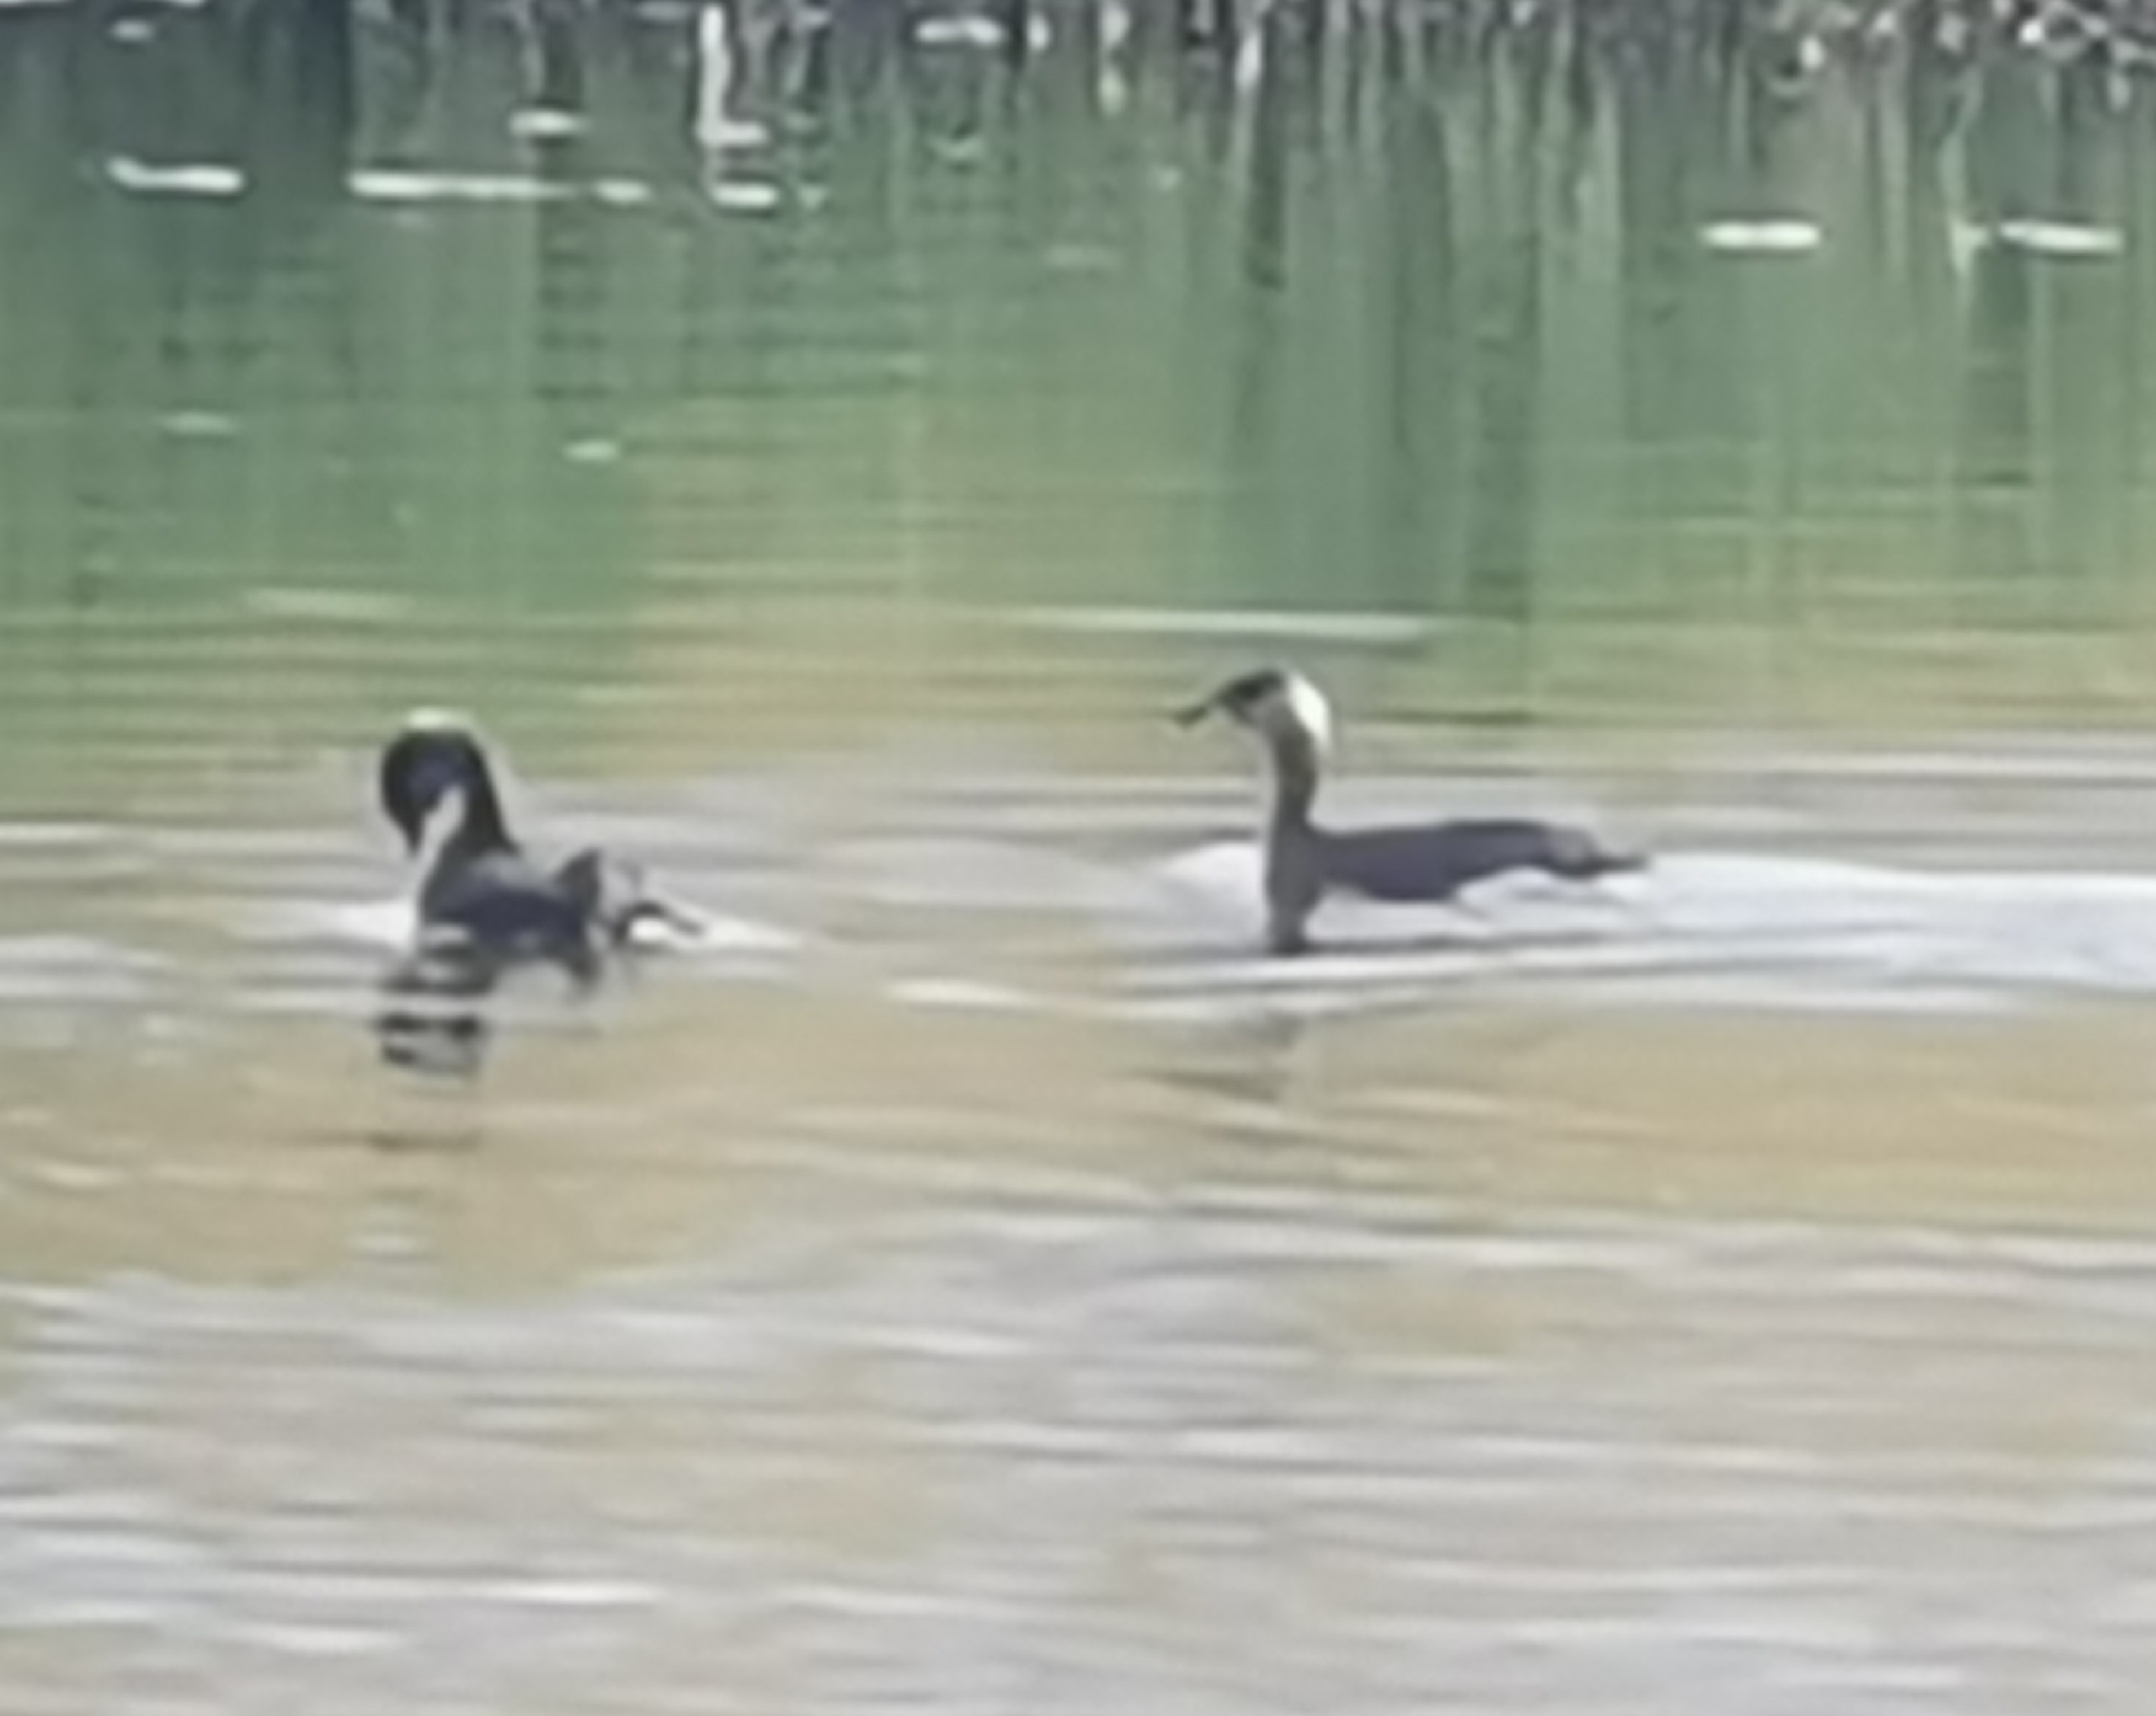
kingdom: Animalia
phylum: Chordata
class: Aves
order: Podicipediformes
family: Podicipedidae
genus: Podiceps
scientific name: Podiceps grisegena
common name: Gråstrubet lappedykker
